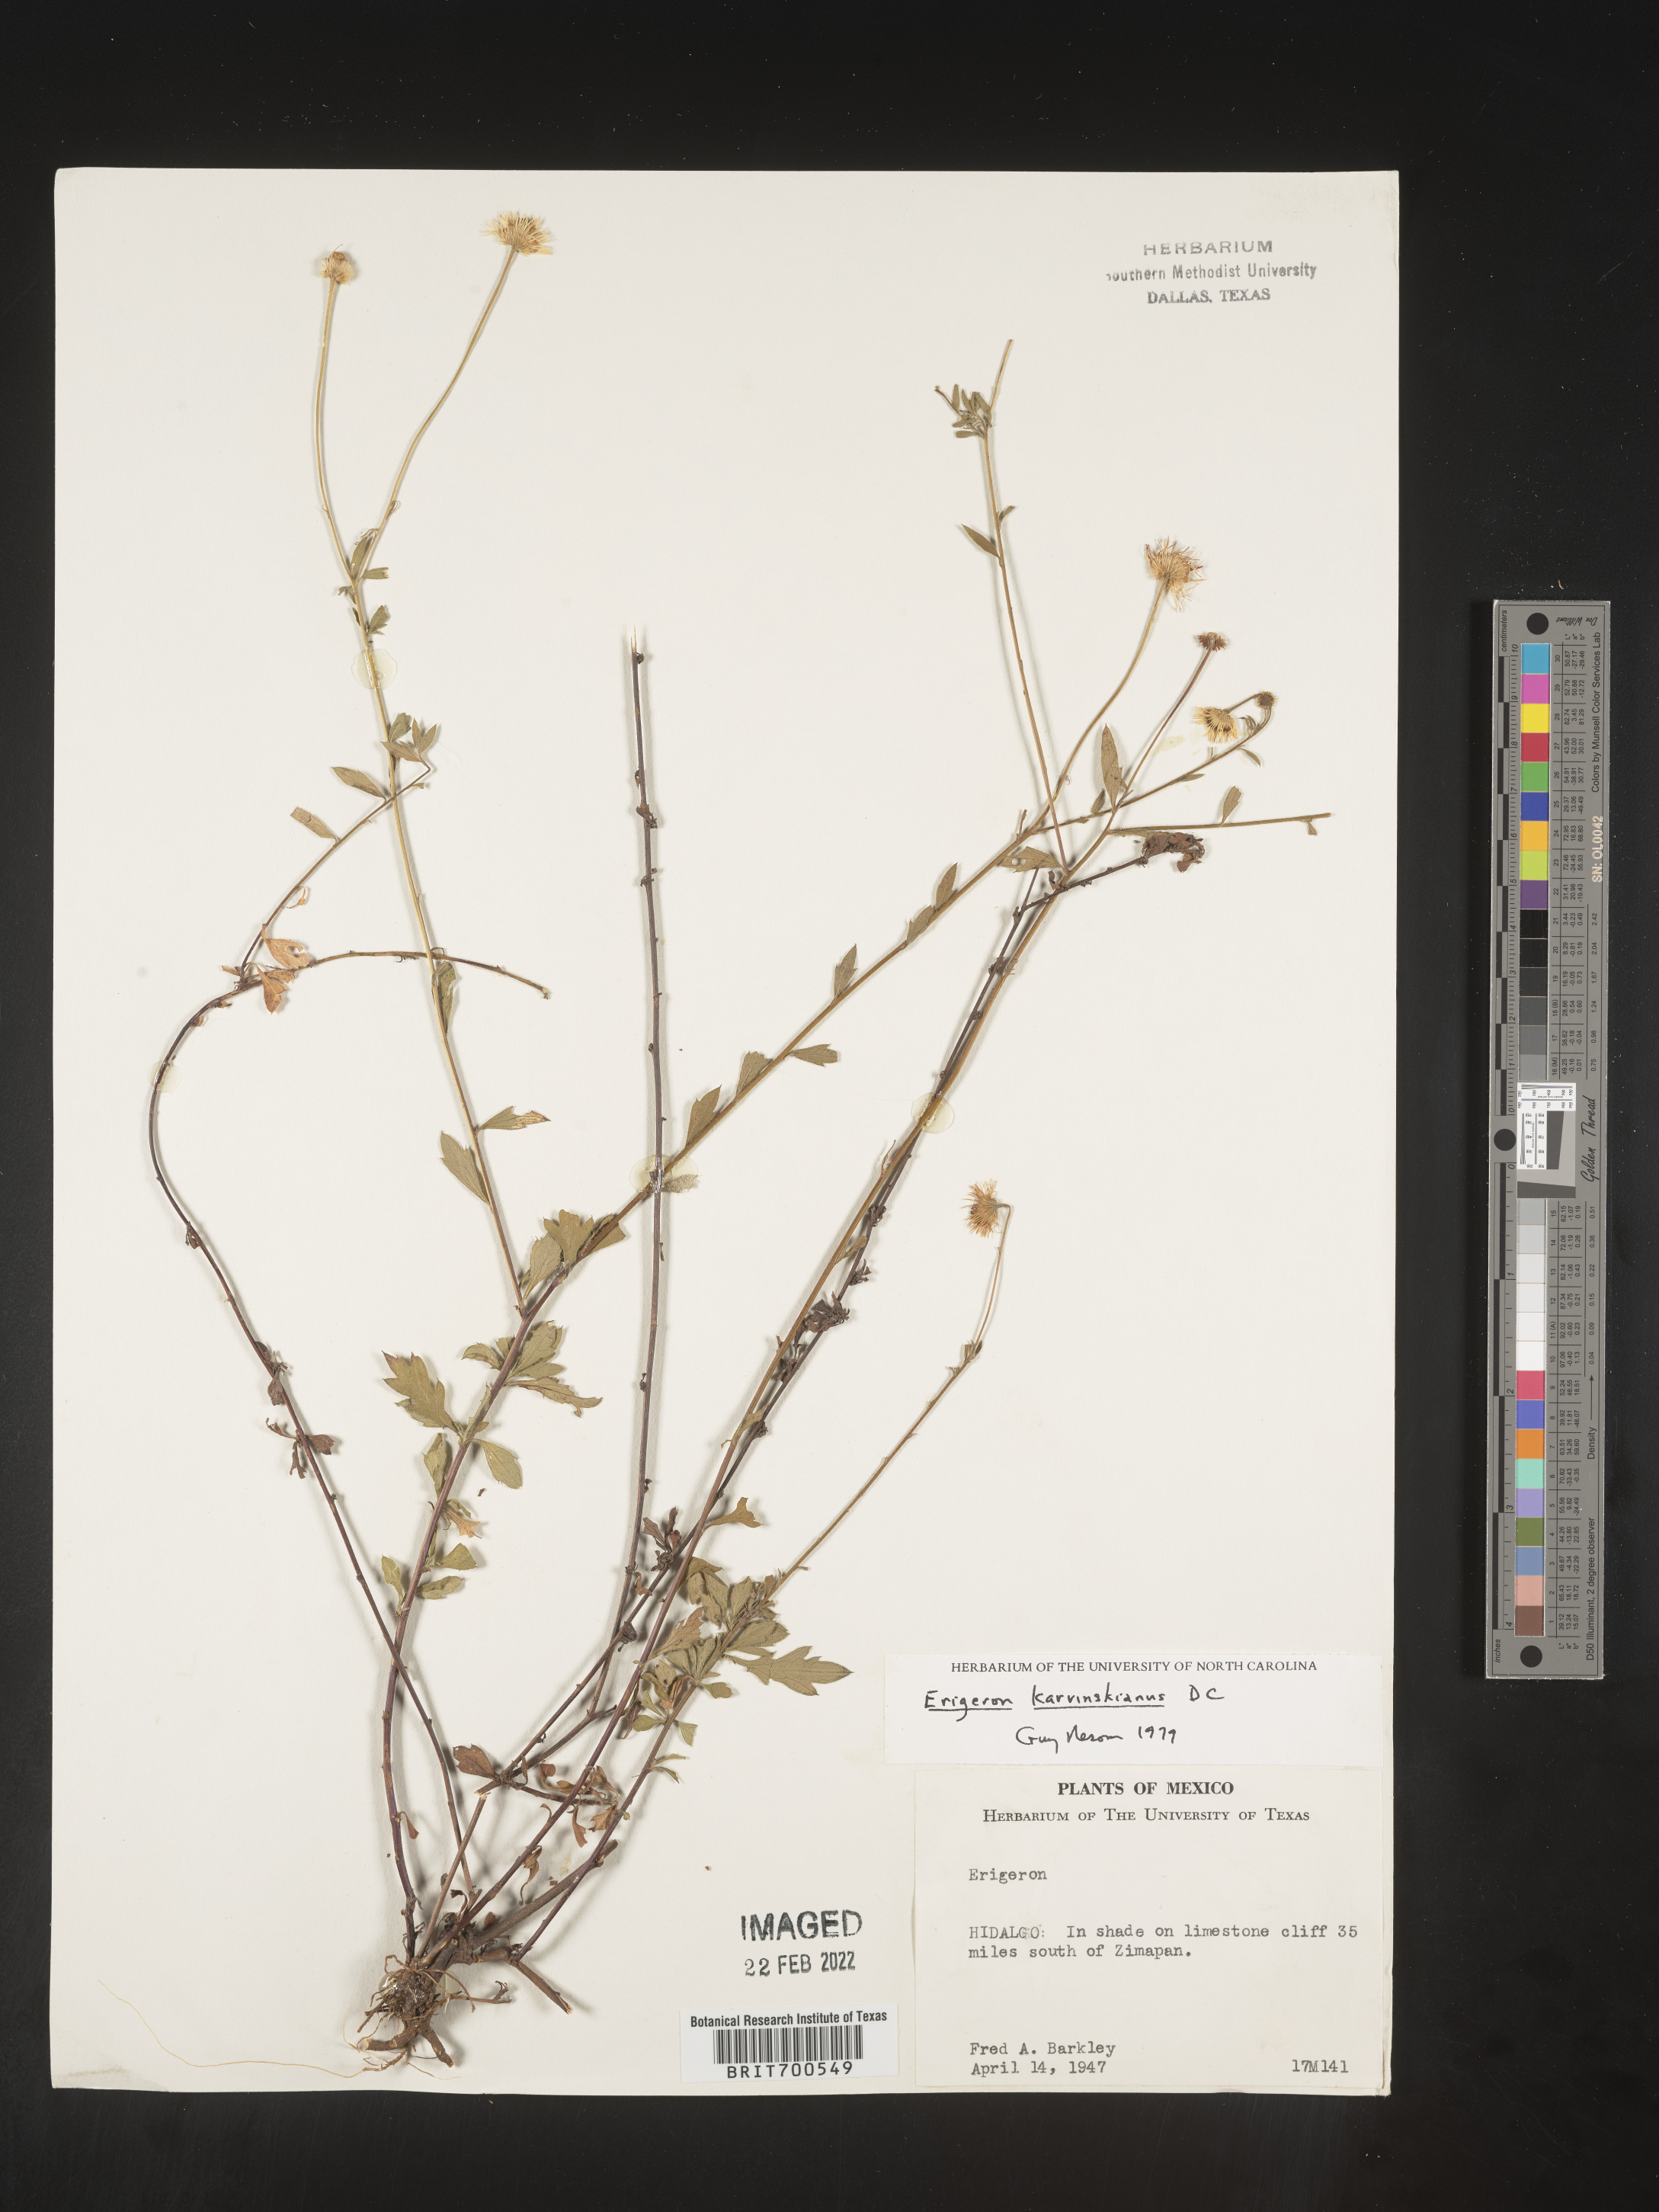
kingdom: Plantae
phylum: Tracheophyta
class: Magnoliopsida
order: Asterales
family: Asteraceae
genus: Erigeron
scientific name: Erigeron karvinskianus
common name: Mexican fleabane
